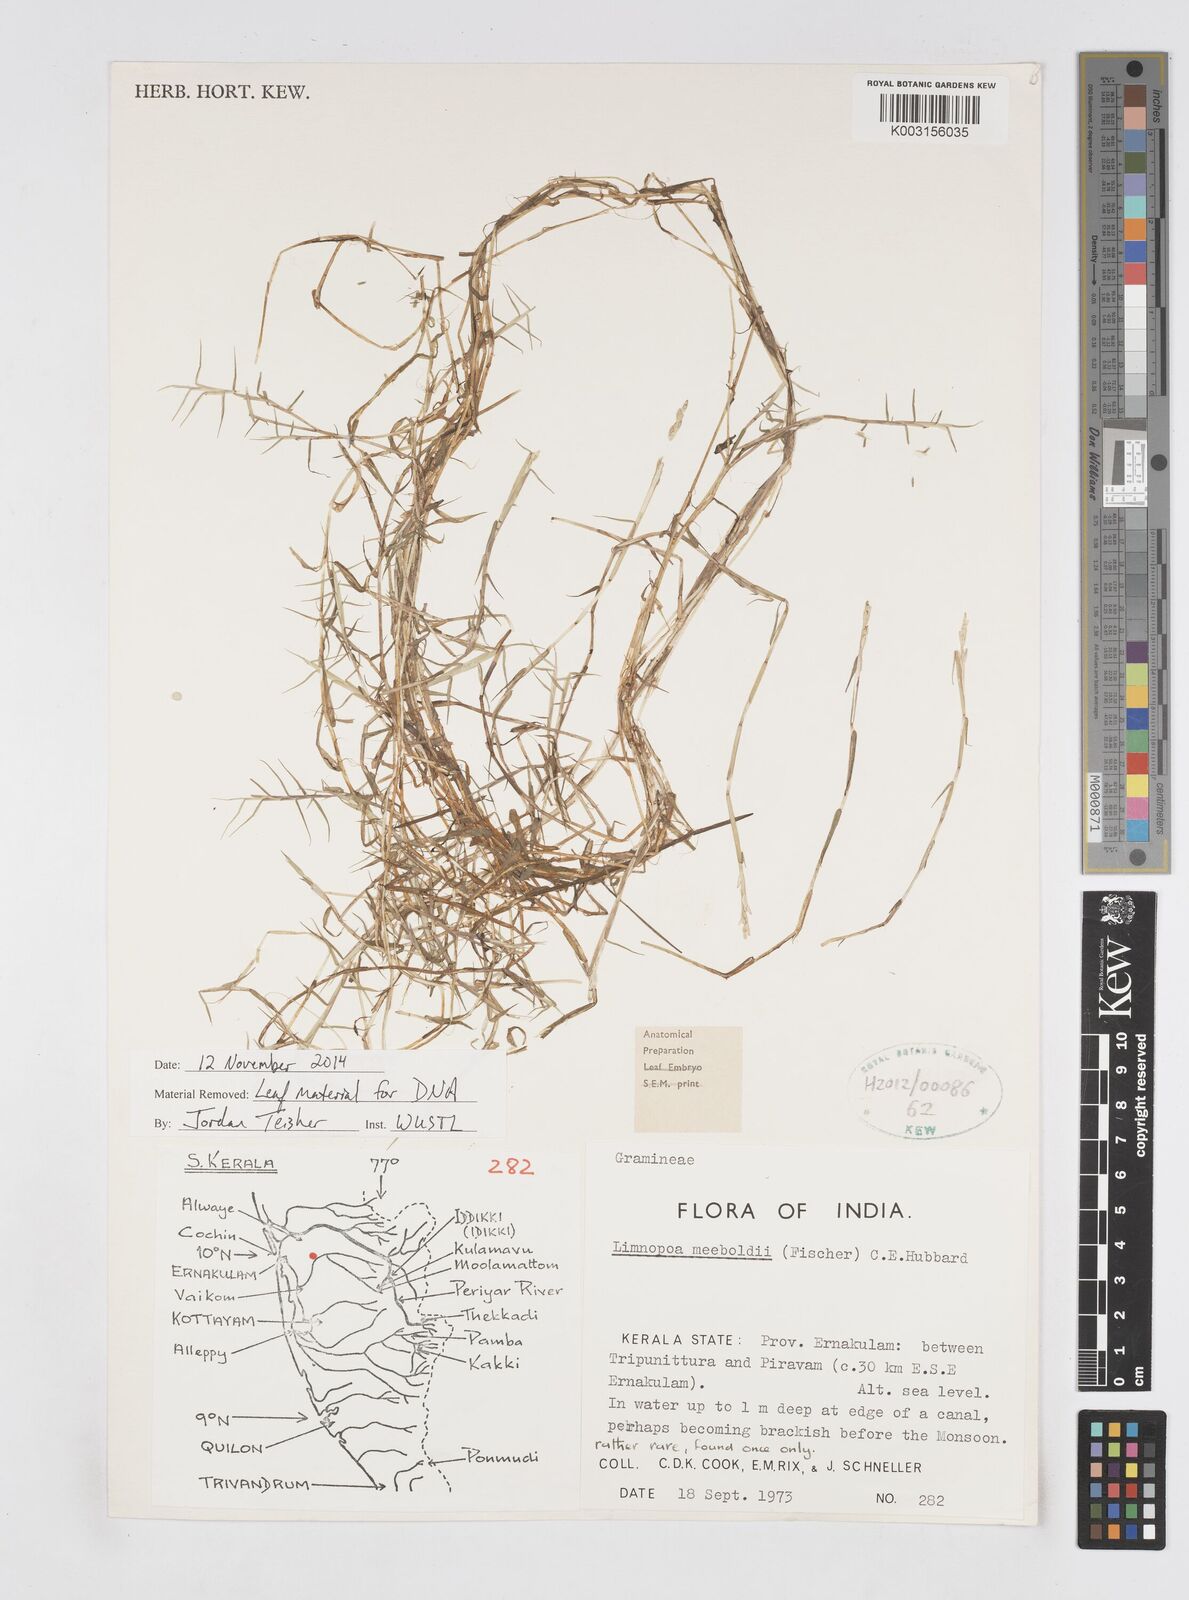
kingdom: Plantae
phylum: Tracheophyta
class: Liliopsida
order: Poales
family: Poaceae
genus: Limnopoa
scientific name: Limnopoa meeboldii
